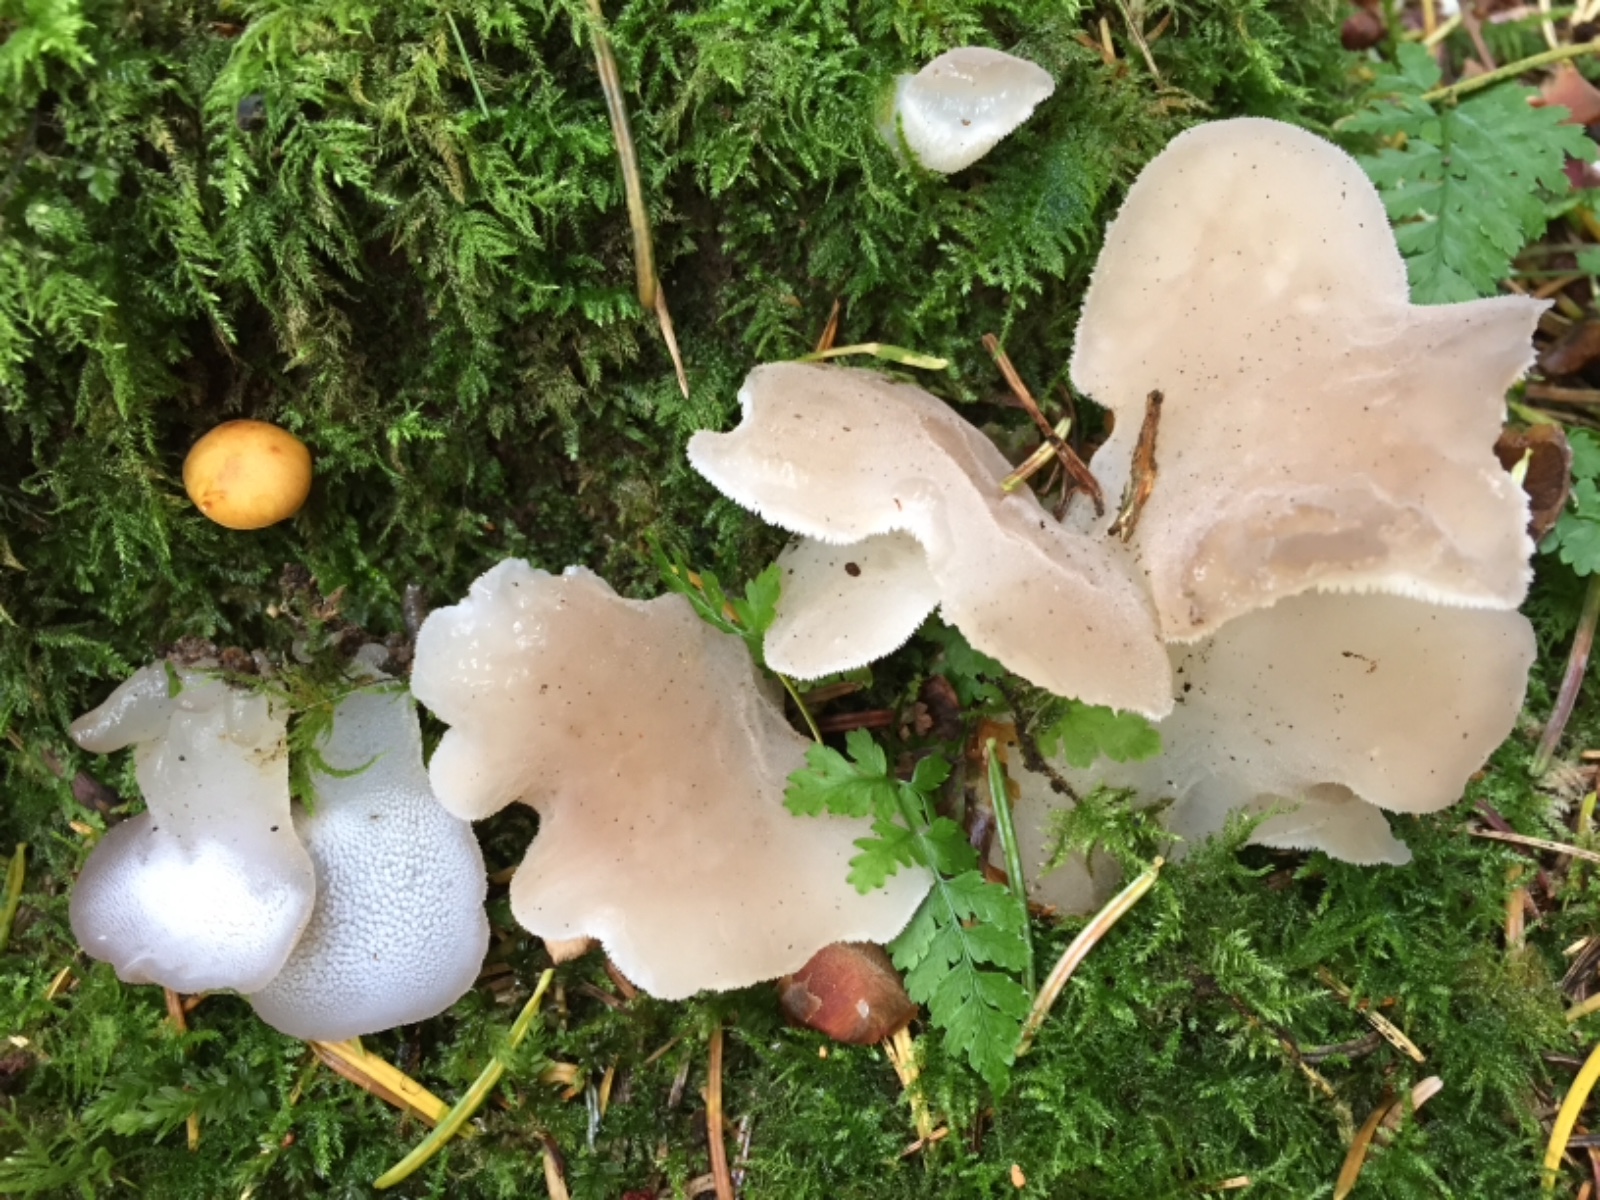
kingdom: Fungi
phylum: Basidiomycota
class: Agaricomycetes
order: Auriculariales
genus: Pseudohydnum
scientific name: Pseudohydnum gelatinosum
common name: bævretand
